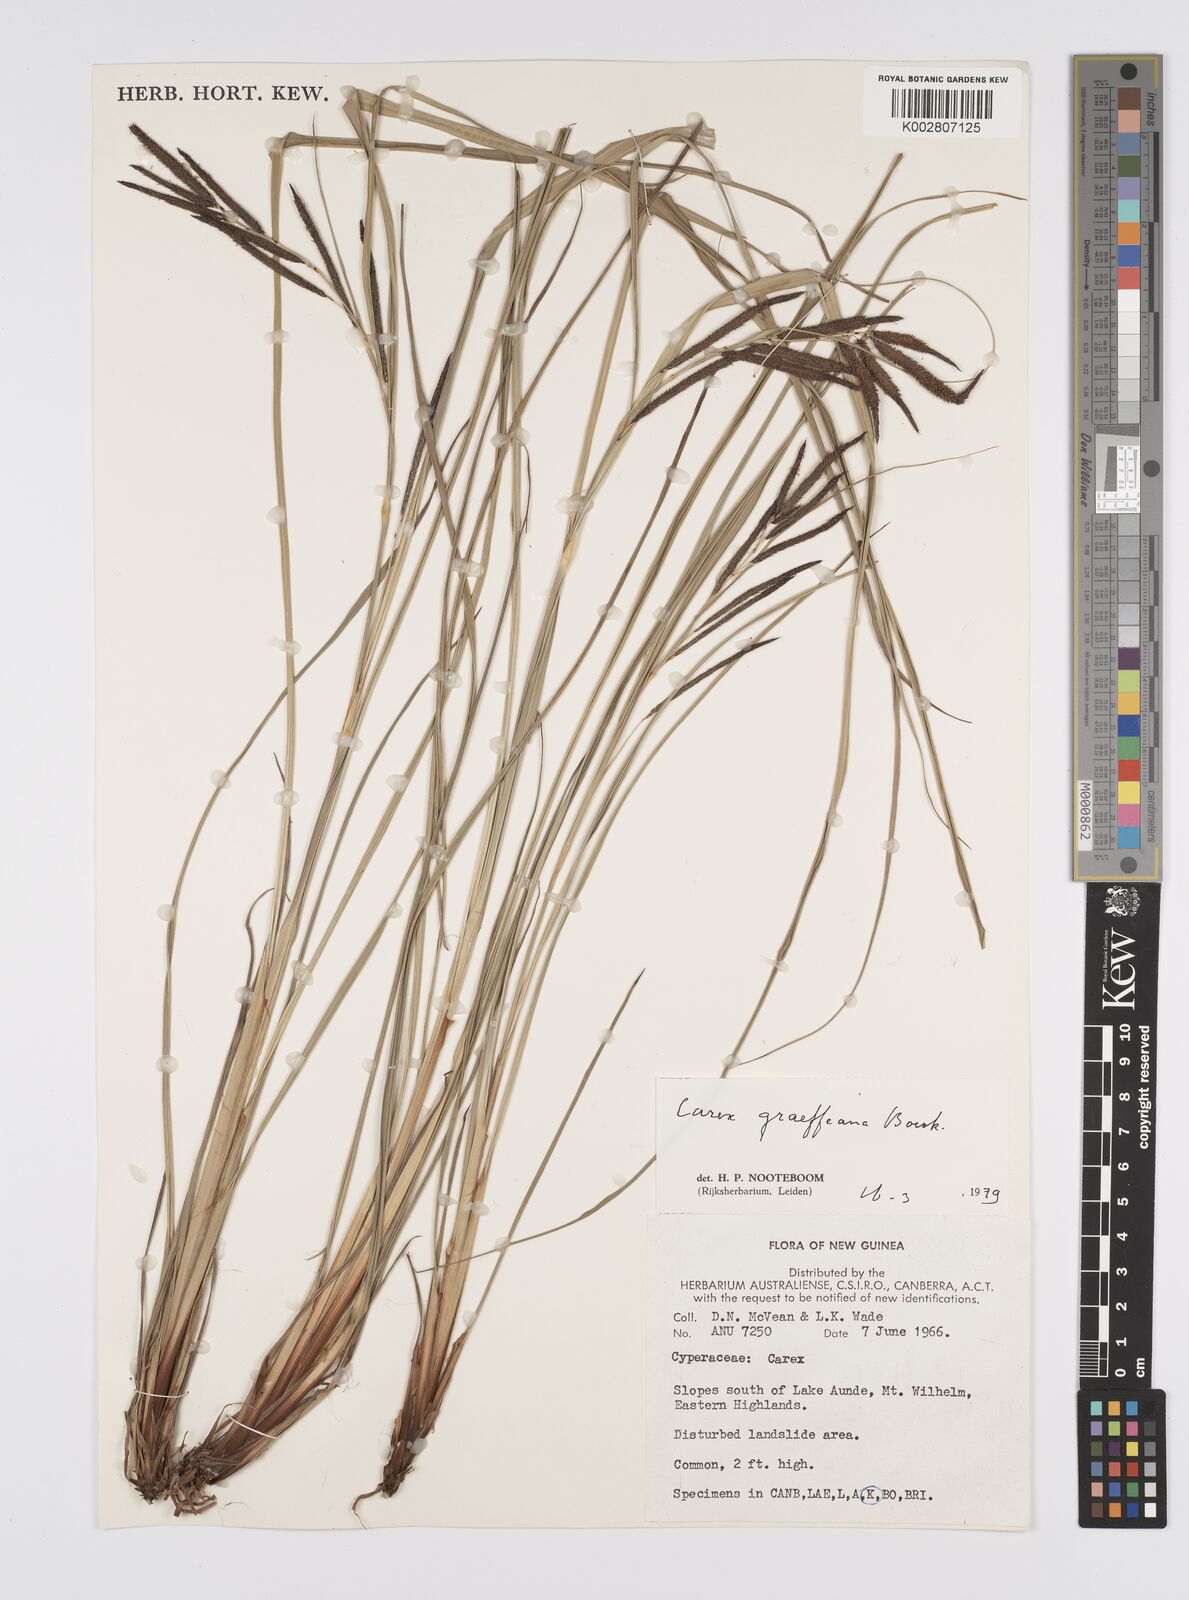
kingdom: Plantae
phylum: Tracheophyta
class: Liliopsida
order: Poales
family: Cyperaceae
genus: Carex
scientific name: Carex graeffeana
